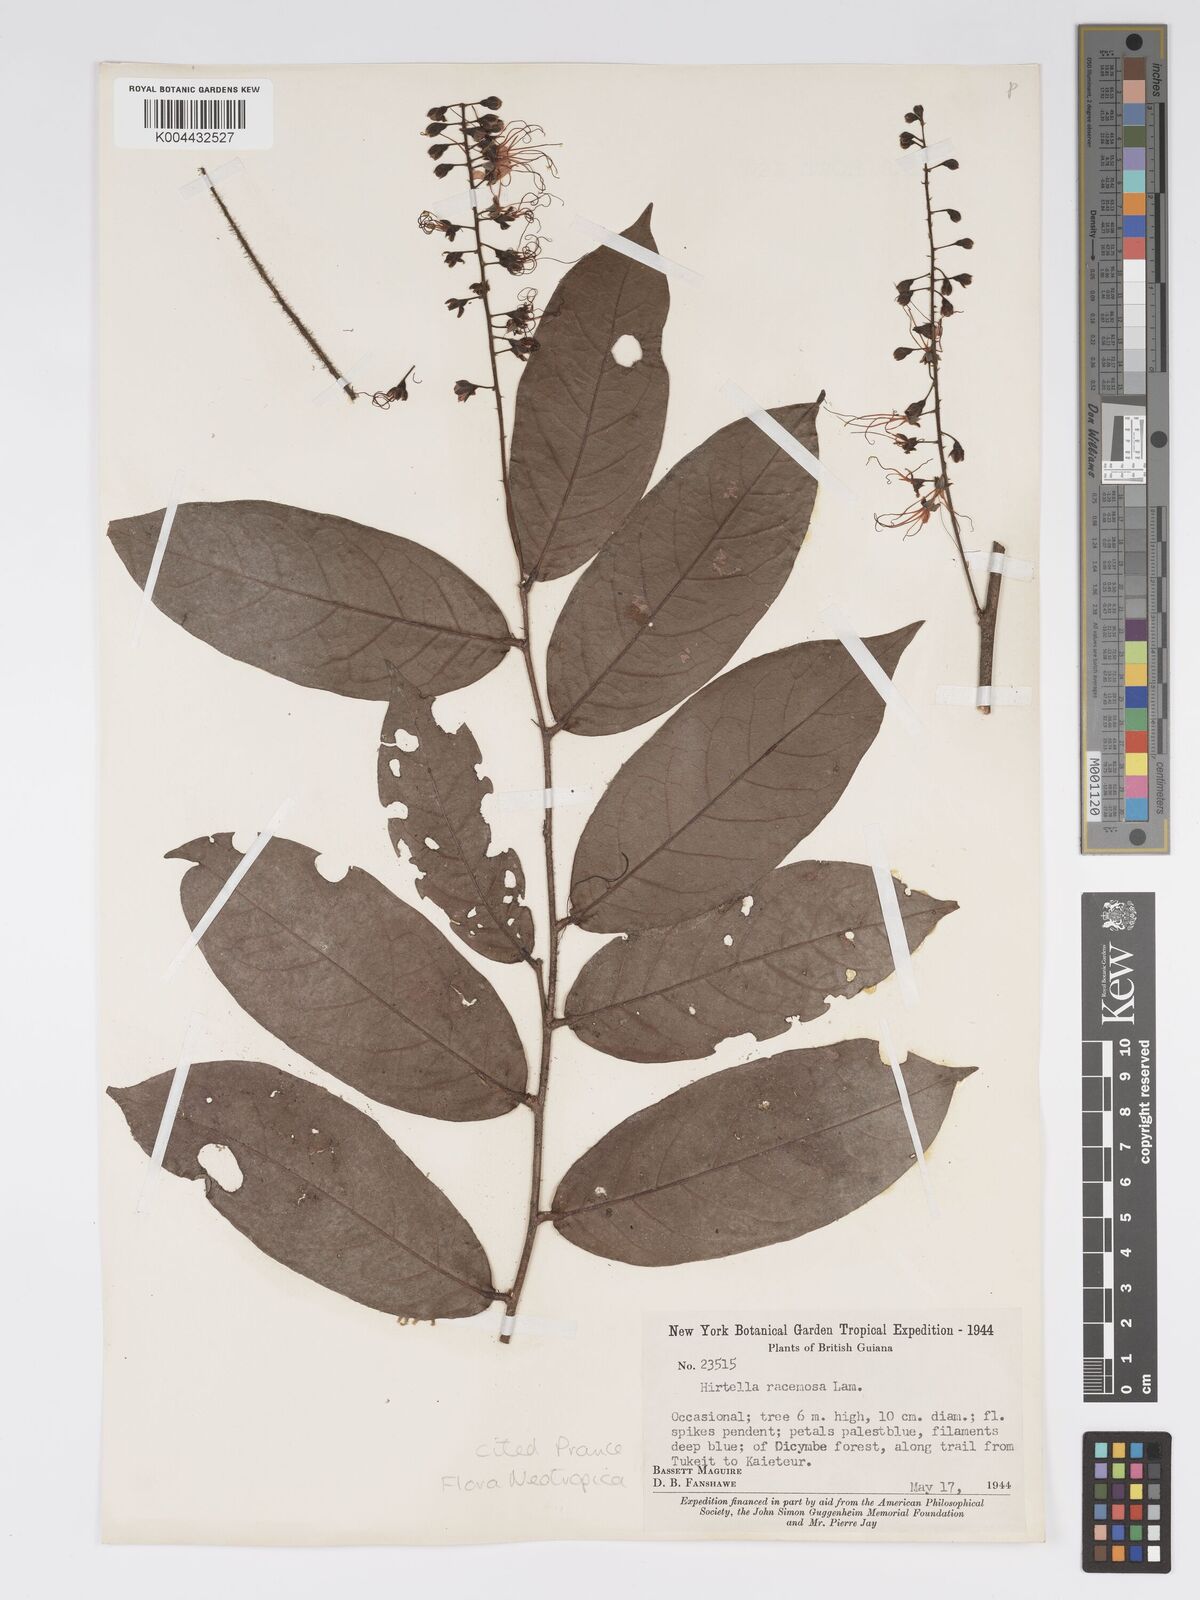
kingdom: Plantae
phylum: Tracheophyta
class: Magnoliopsida
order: Malpighiales
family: Chrysobalanaceae
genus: Hirtella
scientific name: Hirtella
